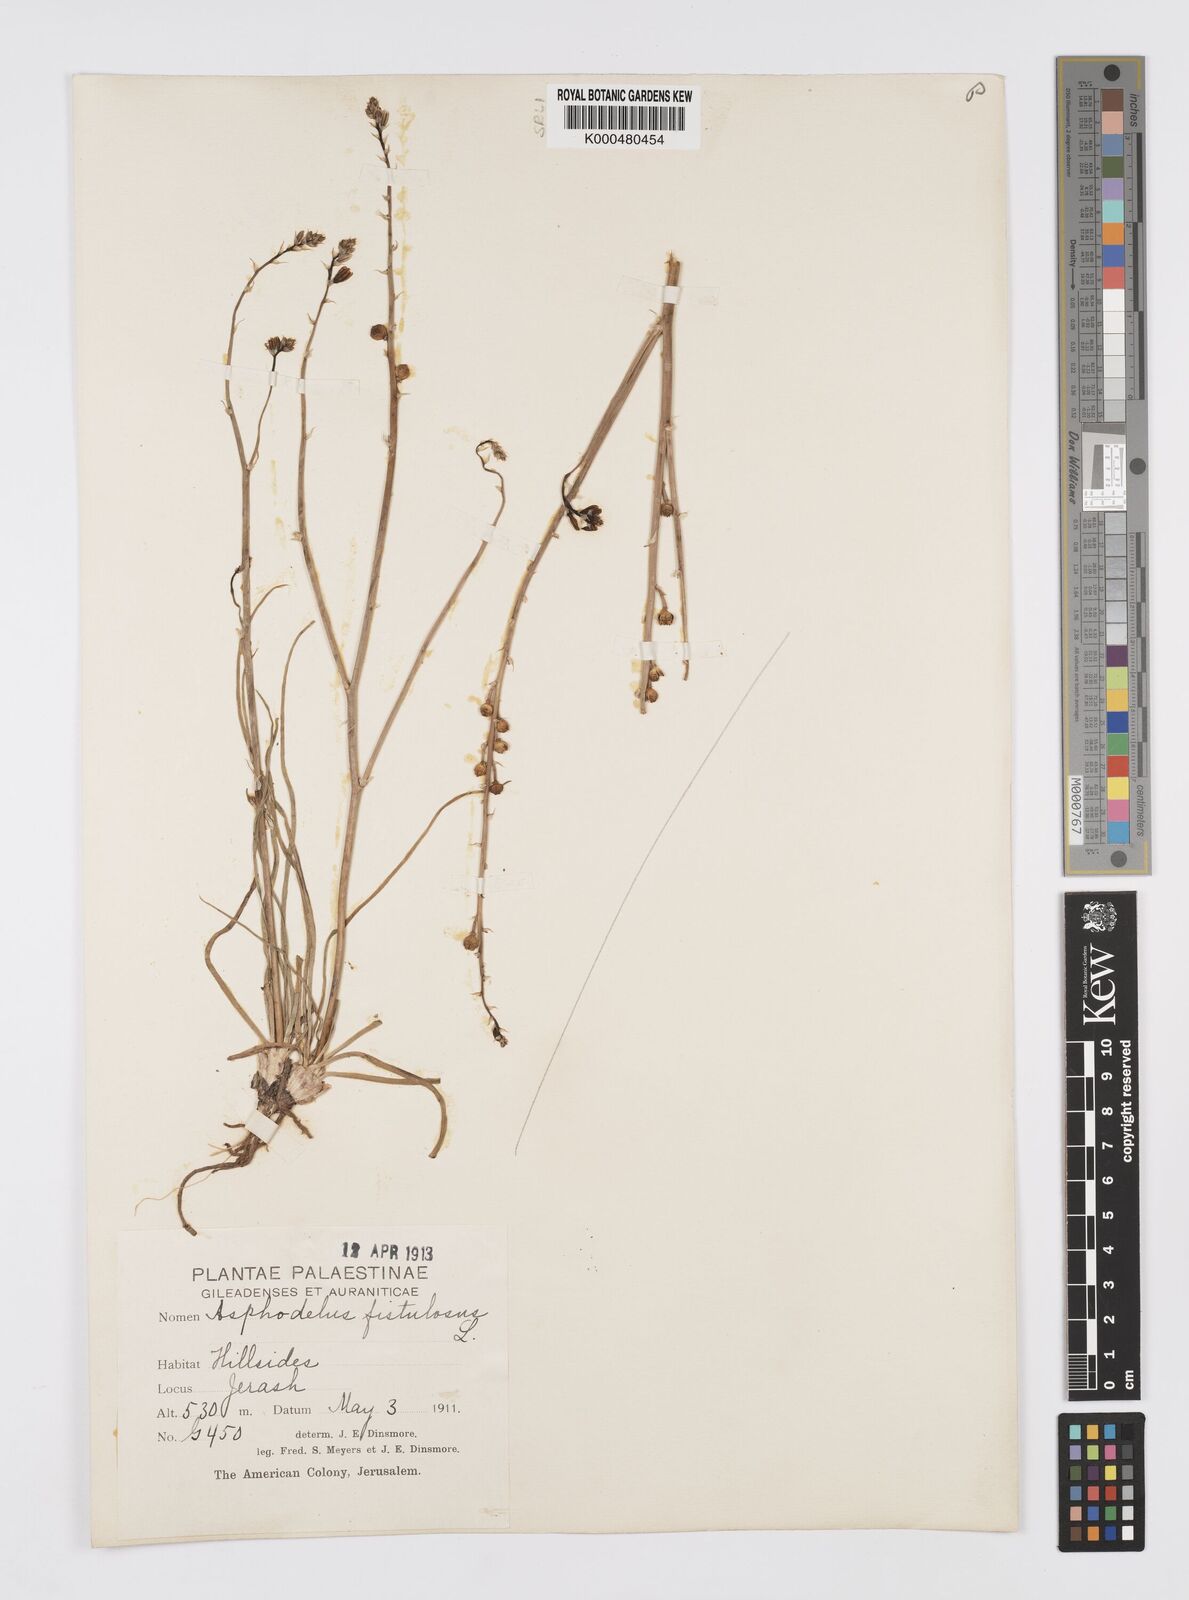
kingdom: Plantae
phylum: Tracheophyta
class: Liliopsida
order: Asparagales
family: Asphodelaceae
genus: Asphodelus
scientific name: Asphodelus fistulosus
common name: Onionweed
